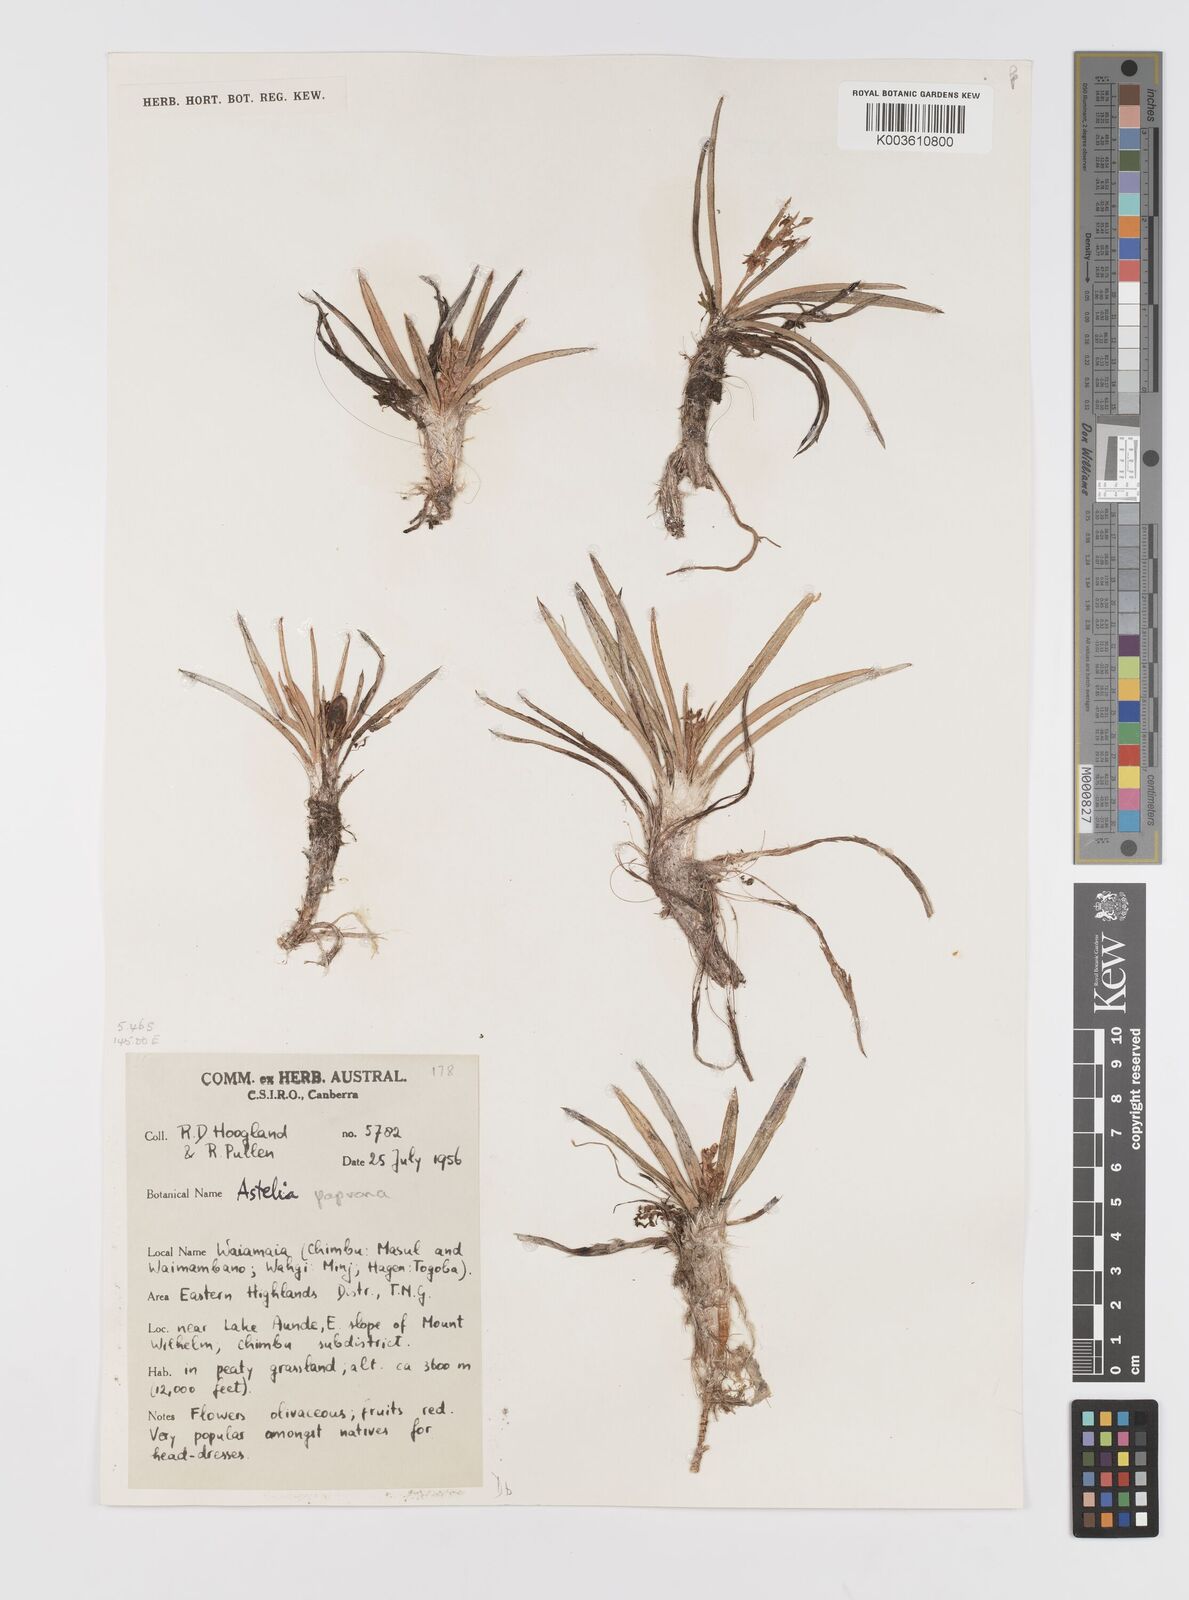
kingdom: Plantae
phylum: Tracheophyta
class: Liliopsida
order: Asparagales
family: Asteliaceae
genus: Astelia
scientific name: Astelia papuana
